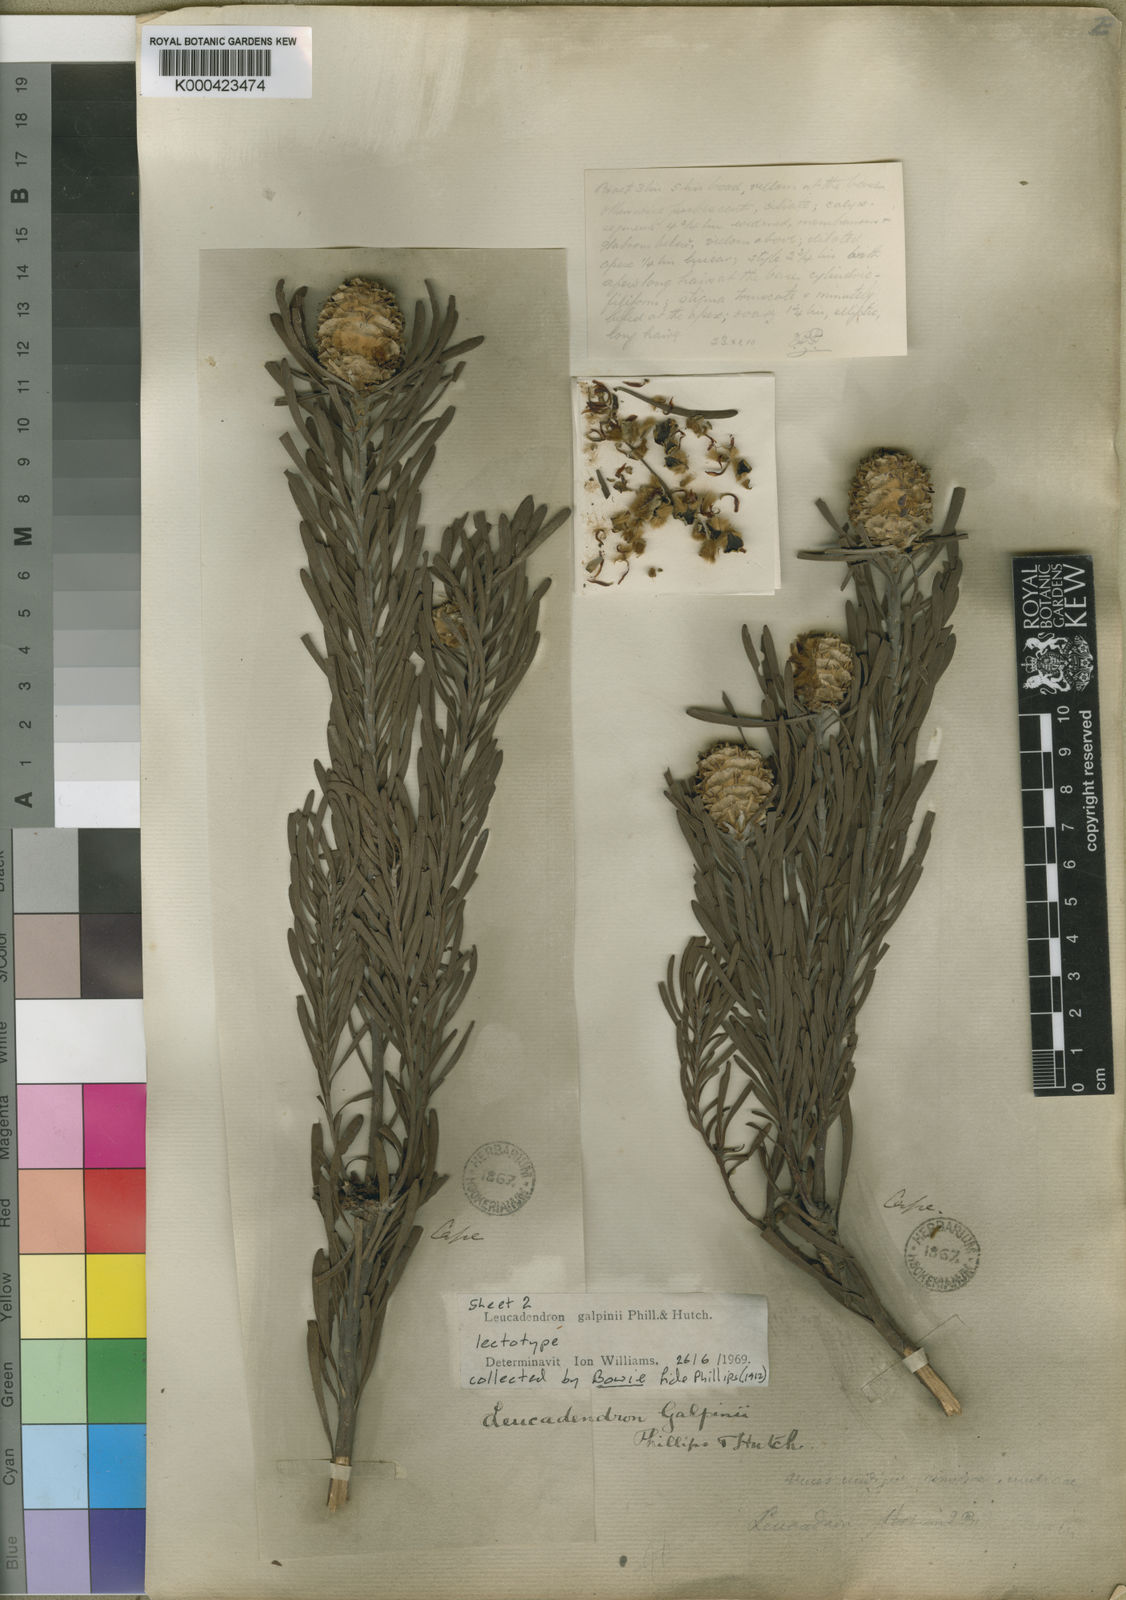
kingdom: Plantae
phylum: Tracheophyta
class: Magnoliopsida
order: Proteales
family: Proteaceae
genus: Leucadendron
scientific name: Leucadendron galpinii
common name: Hairless conebush
